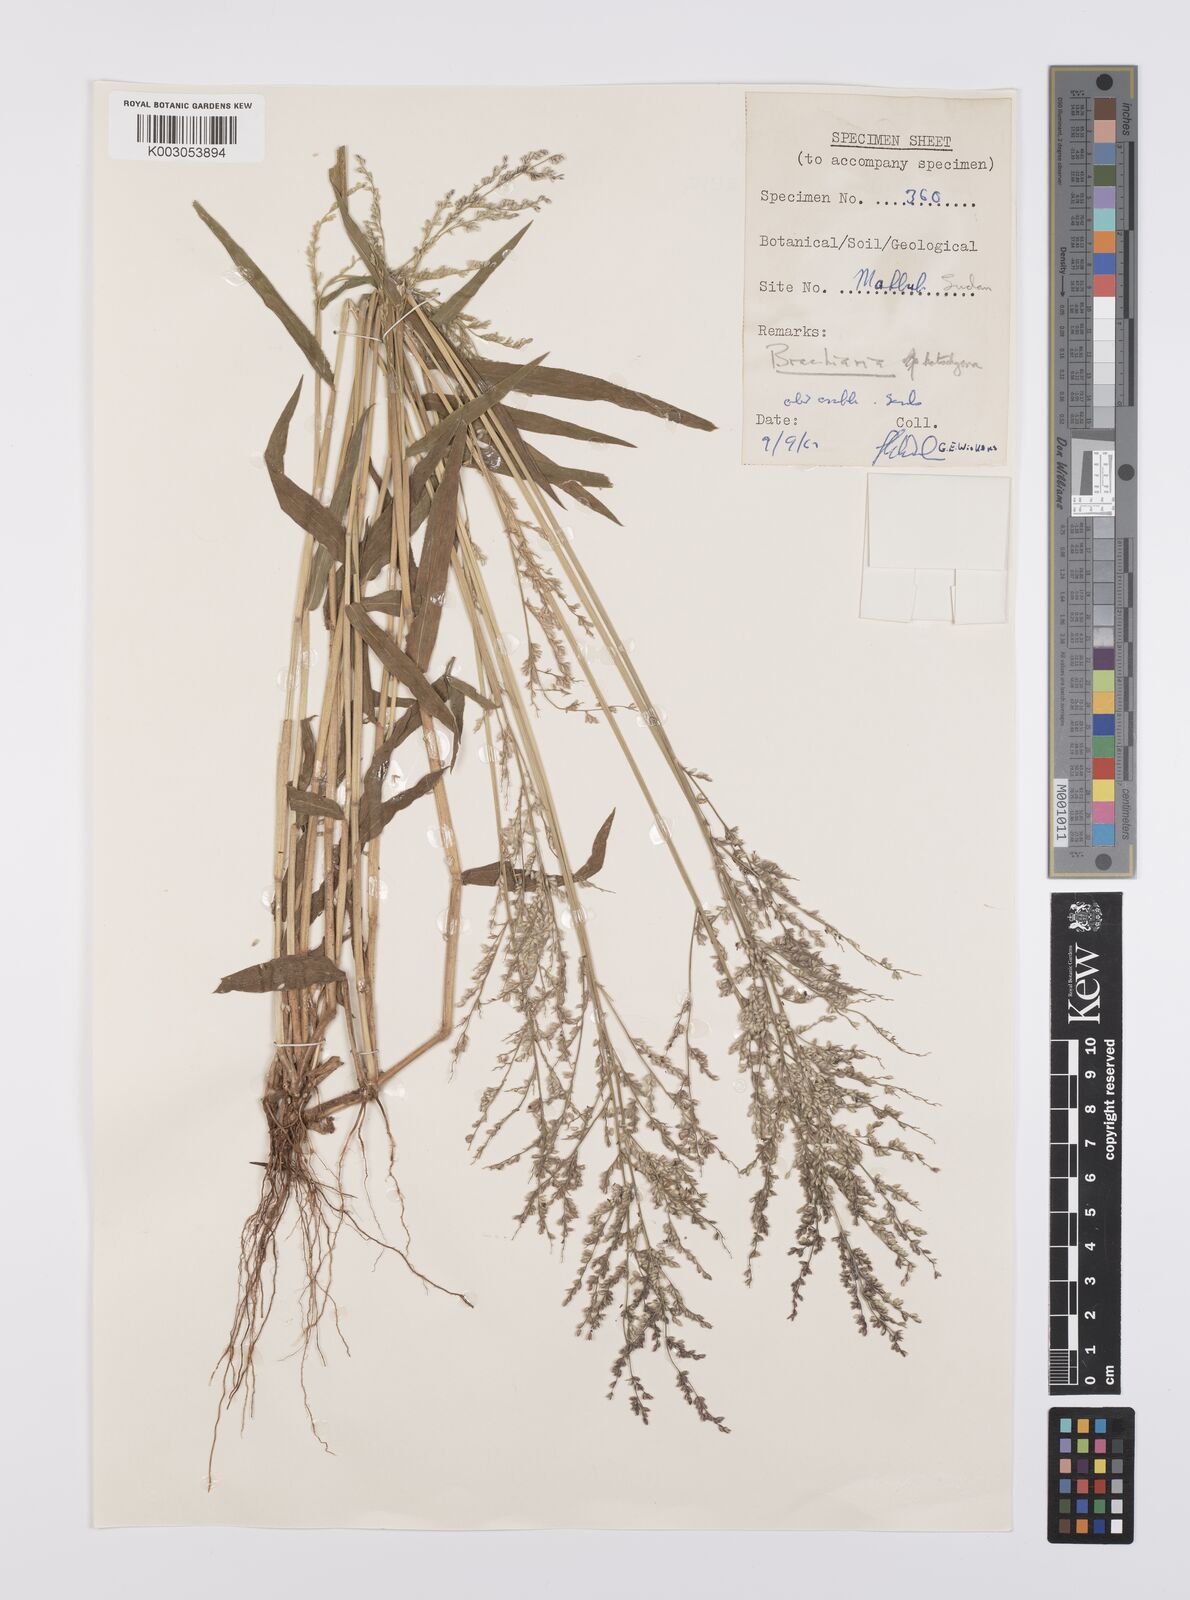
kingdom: Plantae
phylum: Tracheophyta
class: Liliopsida
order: Poales
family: Poaceae
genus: Urochloa
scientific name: Urochloa comata
